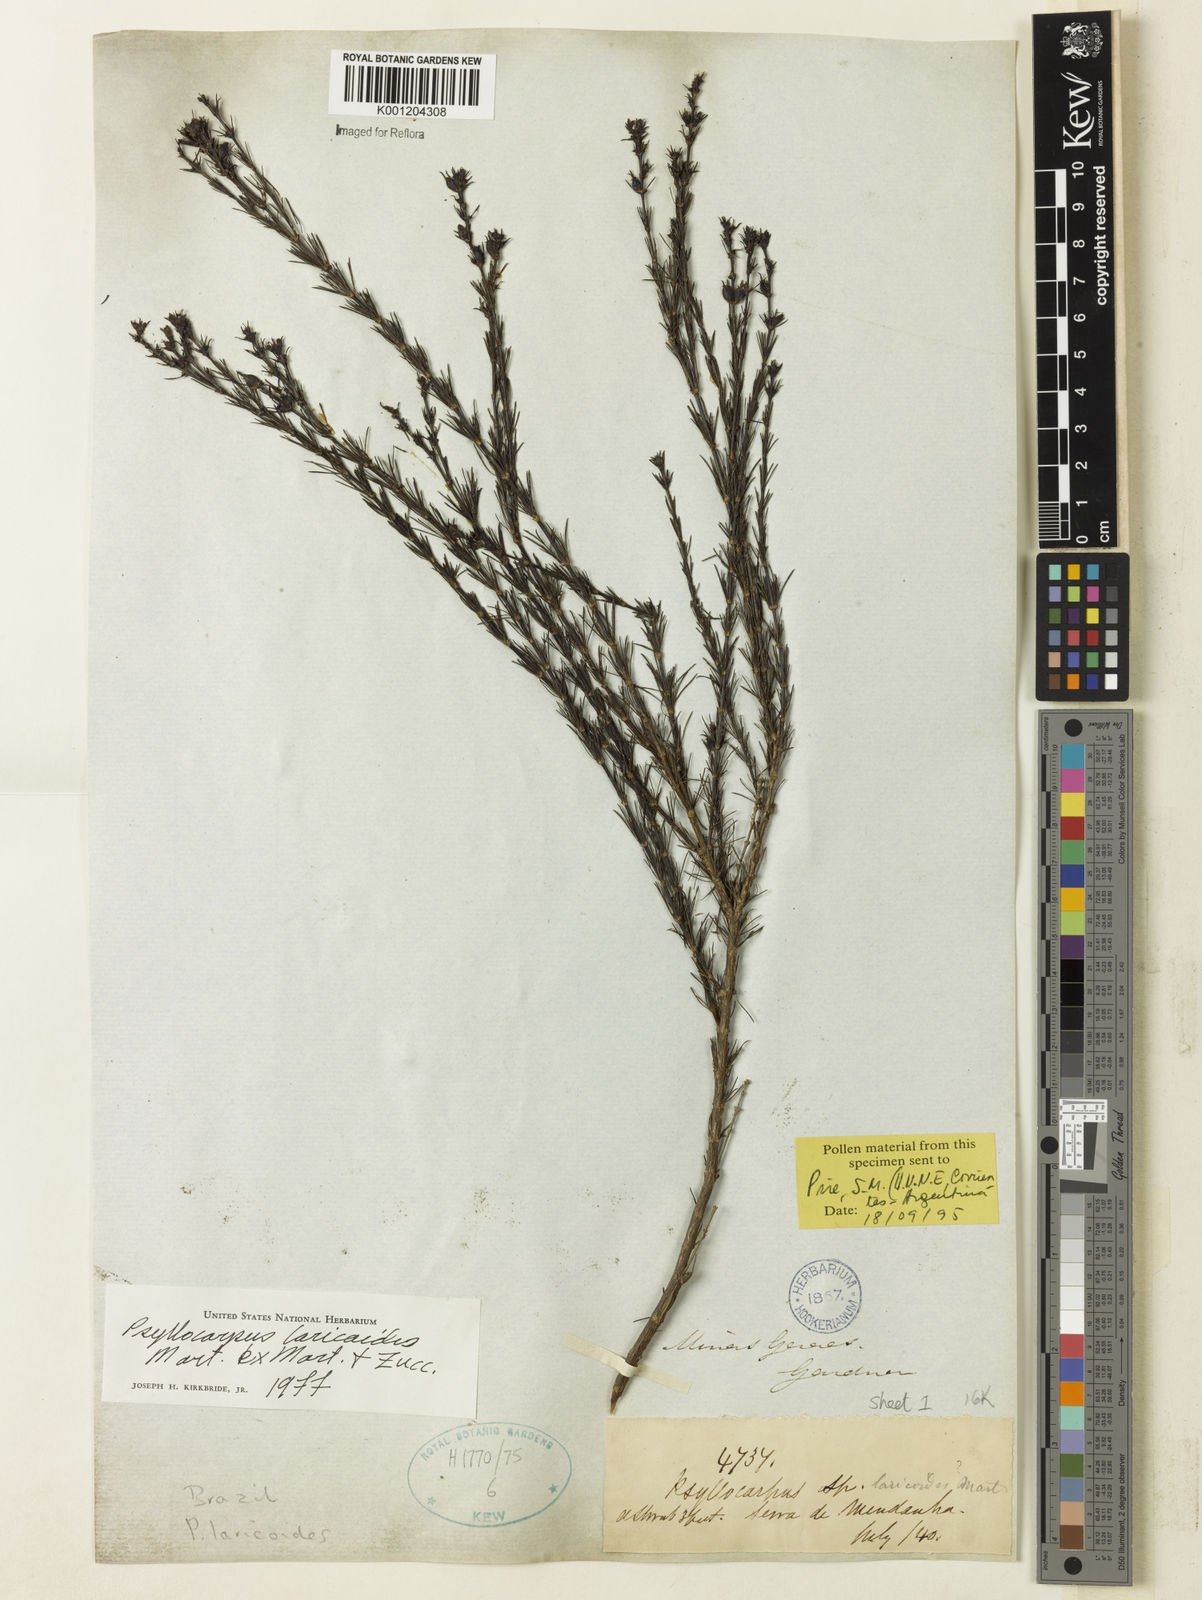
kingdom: Plantae
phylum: Tracheophyta
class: Magnoliopsida
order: Gentianales
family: Rubiaceae
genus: Psyllocarpus
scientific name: Psyllocarpus laricoides
